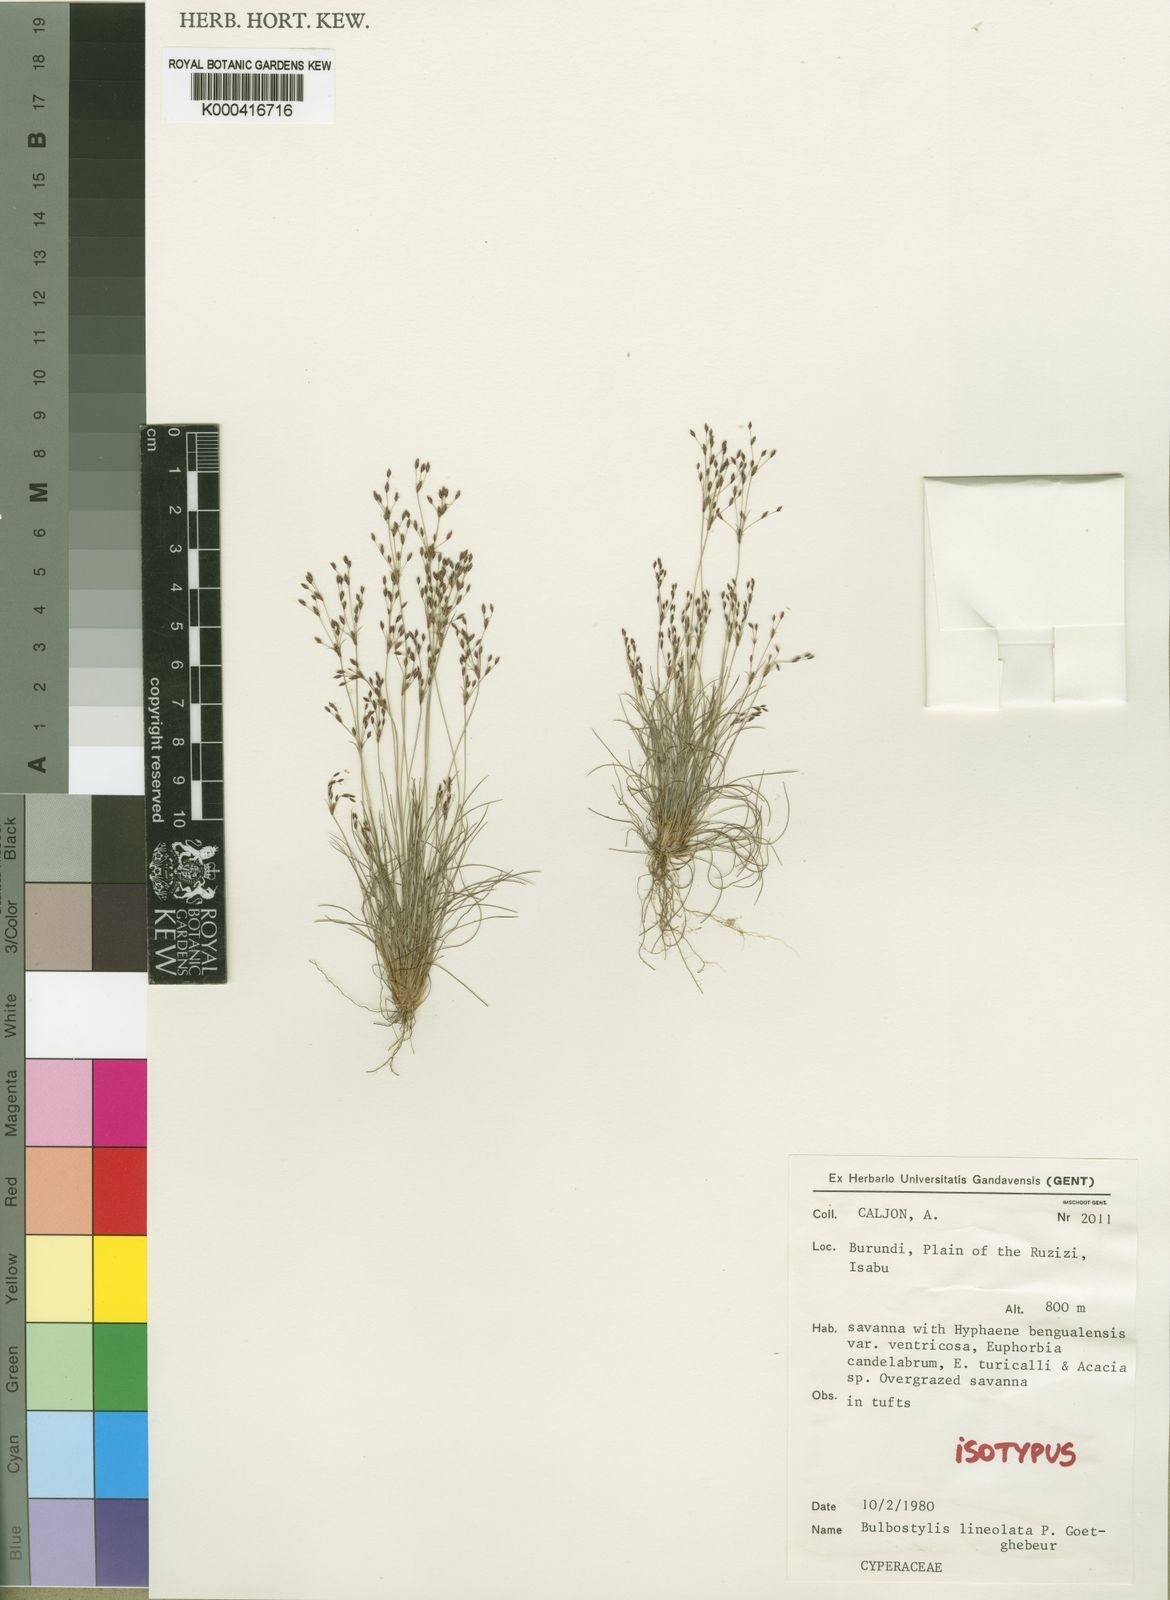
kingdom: Plantae
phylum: Tracheophyta
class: Liliopsida
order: Poales
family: Cyperaceae
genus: Bulbostylis
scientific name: Bulbostylis scrobiculata
